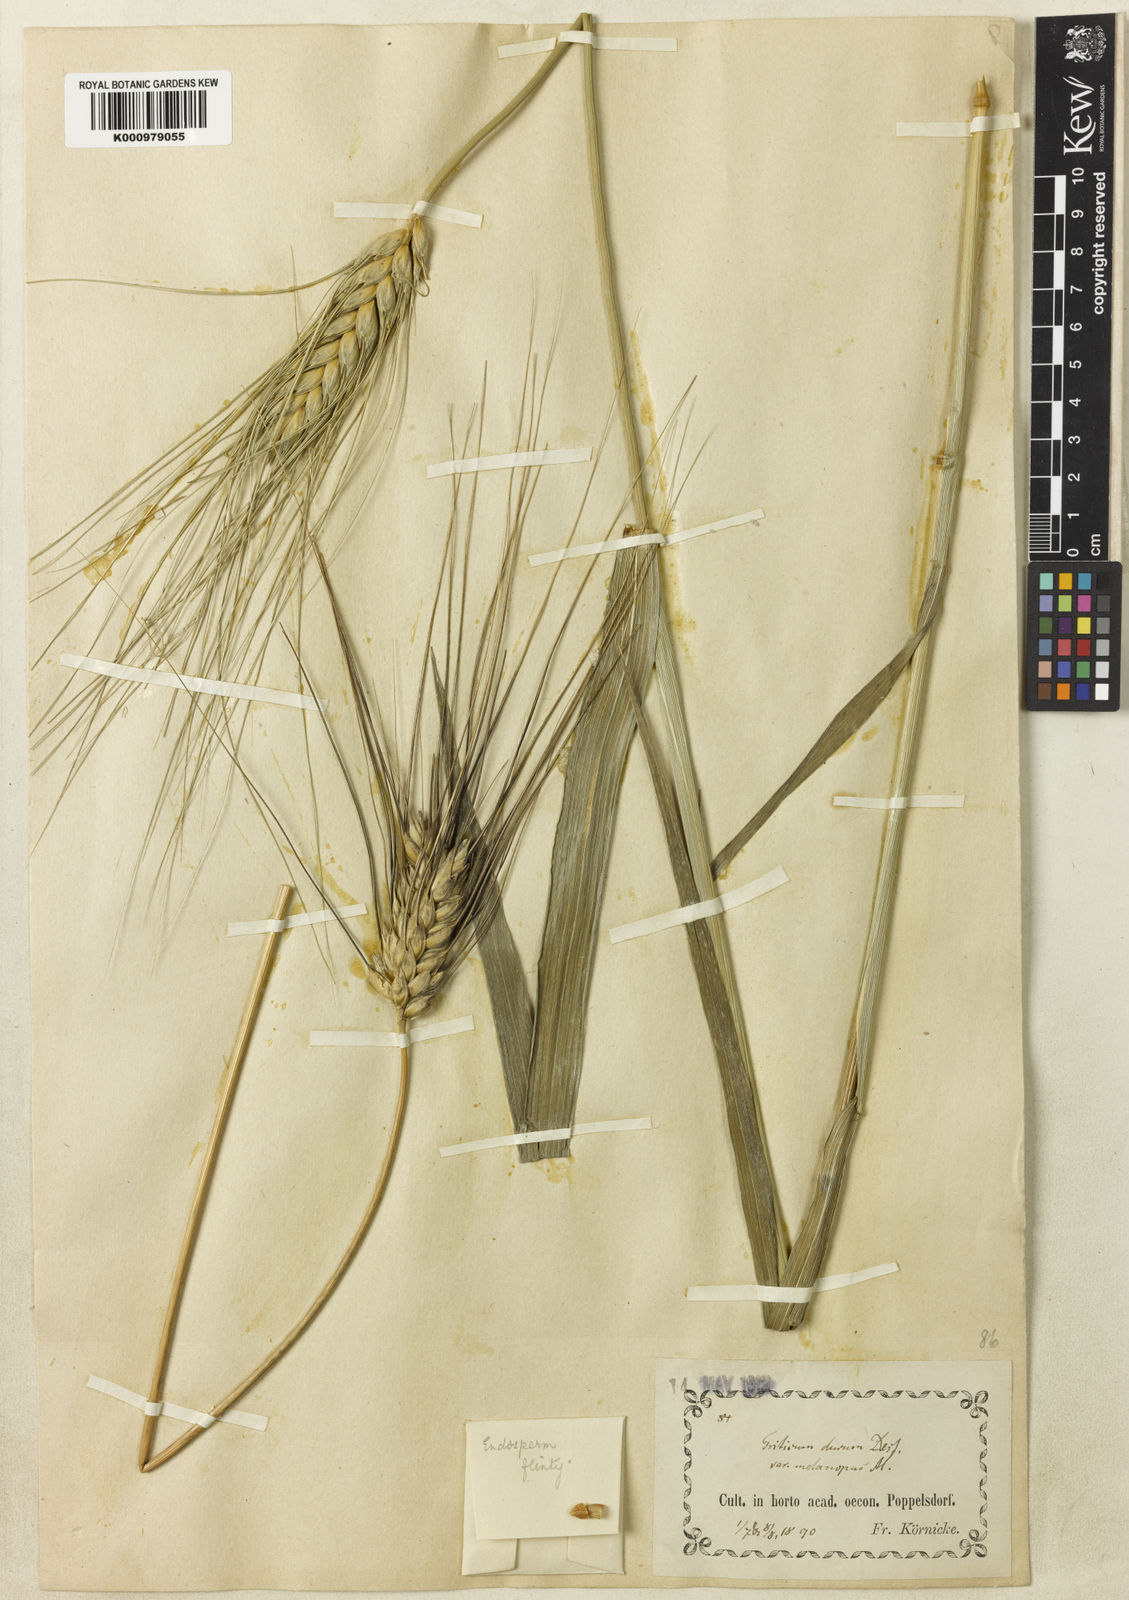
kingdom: Plantae
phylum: Tracheophyta
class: Liliopsida
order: Poales
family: Poaceae
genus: Triticum
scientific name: Triticum turgidum
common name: Rivet wheat
